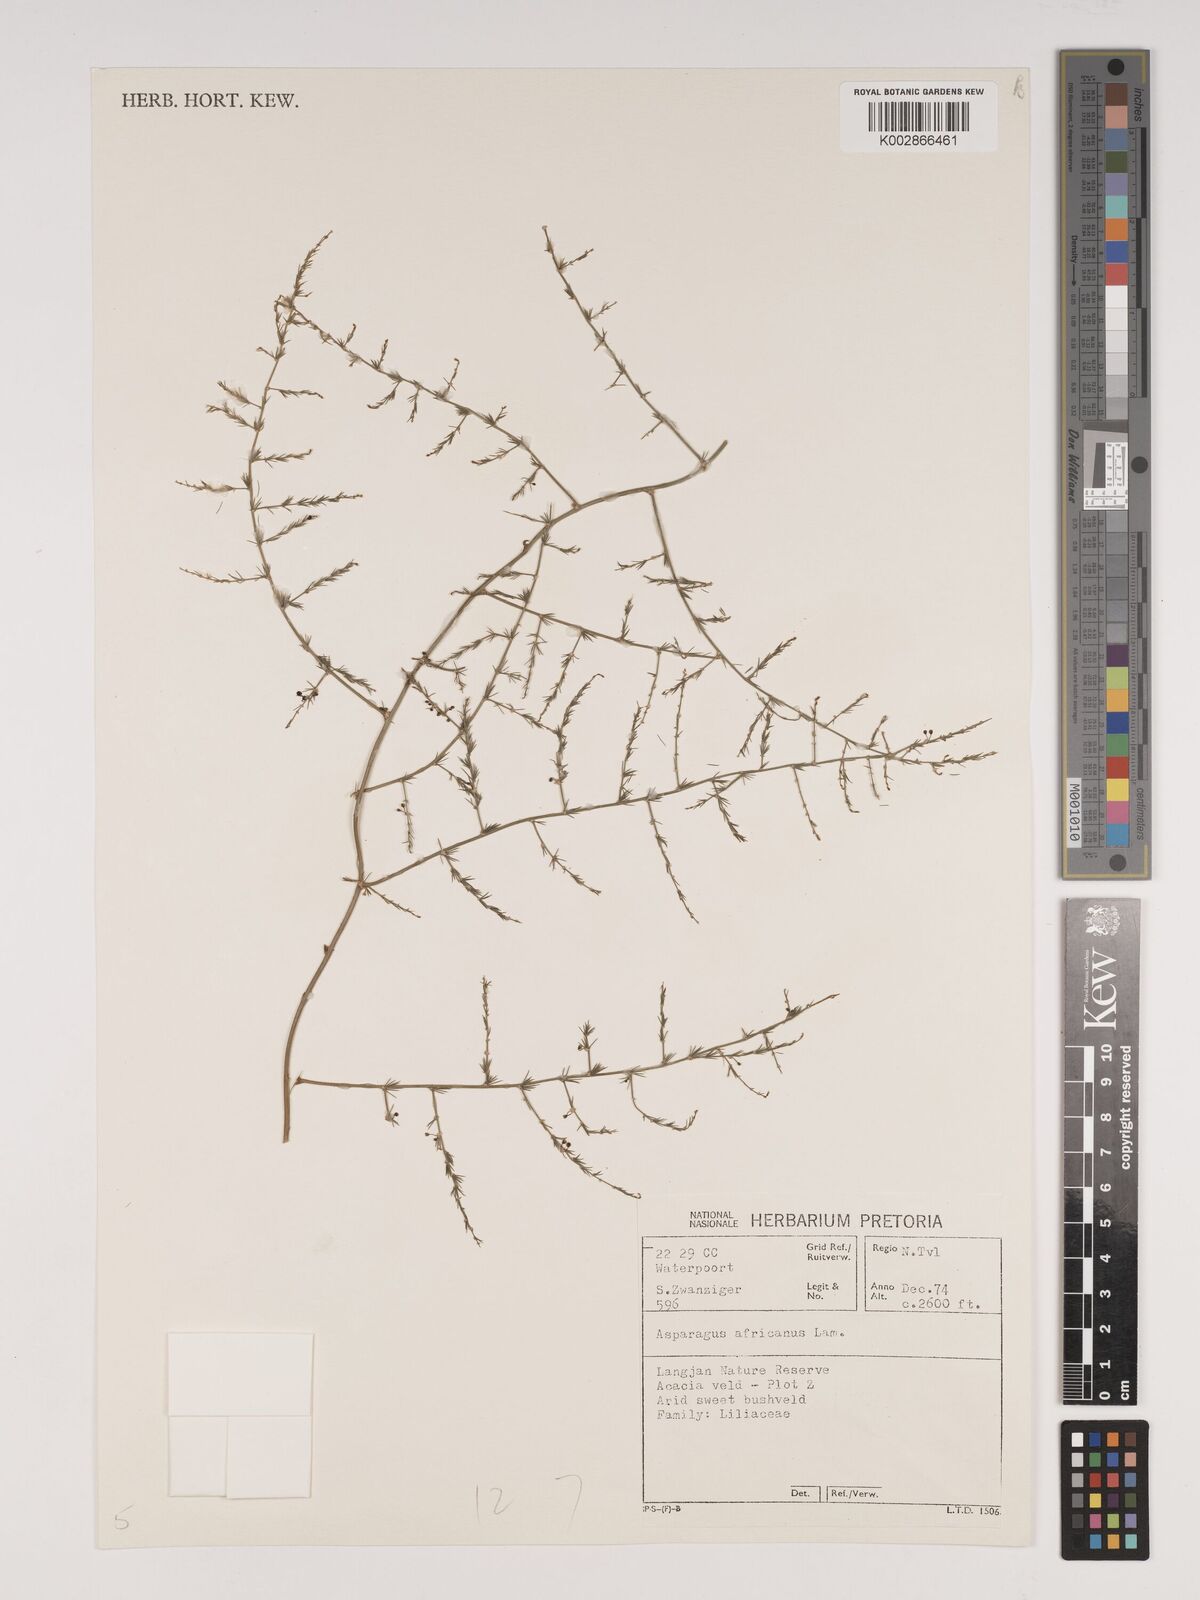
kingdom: Plantae
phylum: Tracheophyta
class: Liliopsida
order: Asparagales
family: Asparagaceae
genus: Asparagus
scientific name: Asparagus africanus
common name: Asparagus-fern
